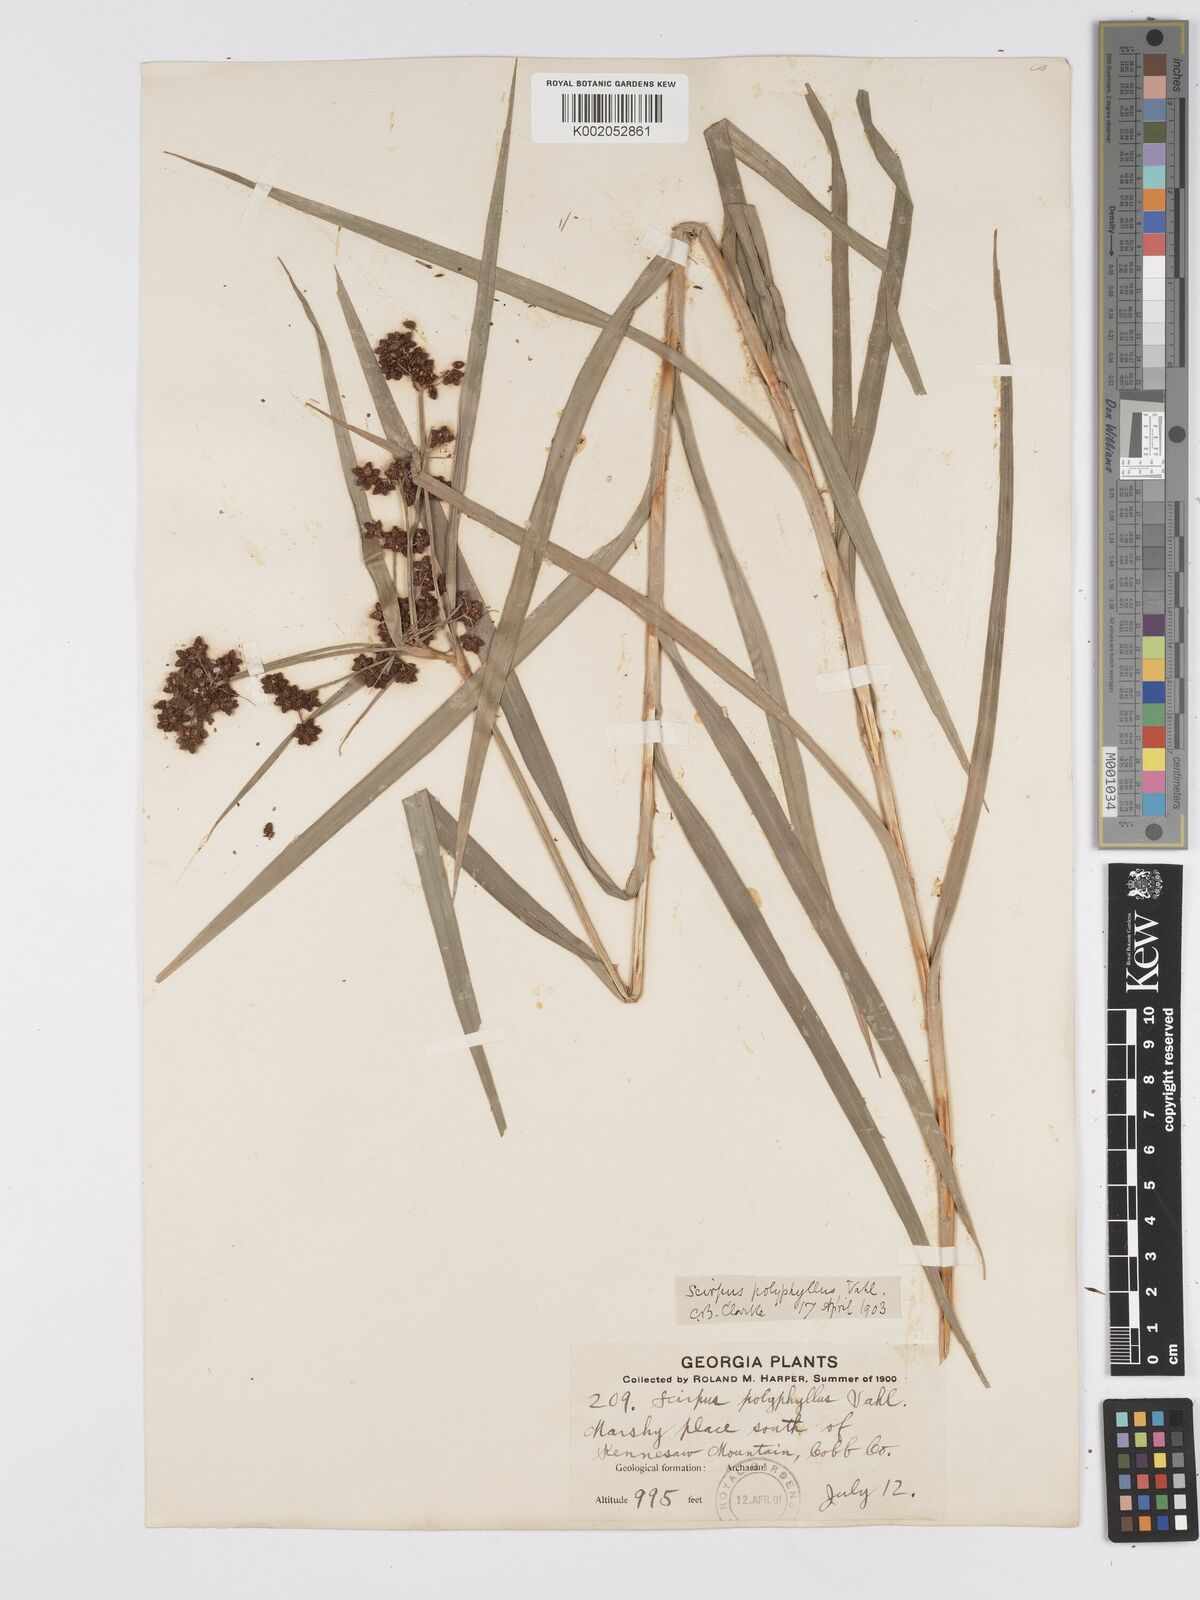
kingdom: Plantae
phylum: Tracheophyta
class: Liliopsida
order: Poales
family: Cyperaceae
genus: Scirpus
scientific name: Scirpus polyphyllus
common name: Leafy bulrush
